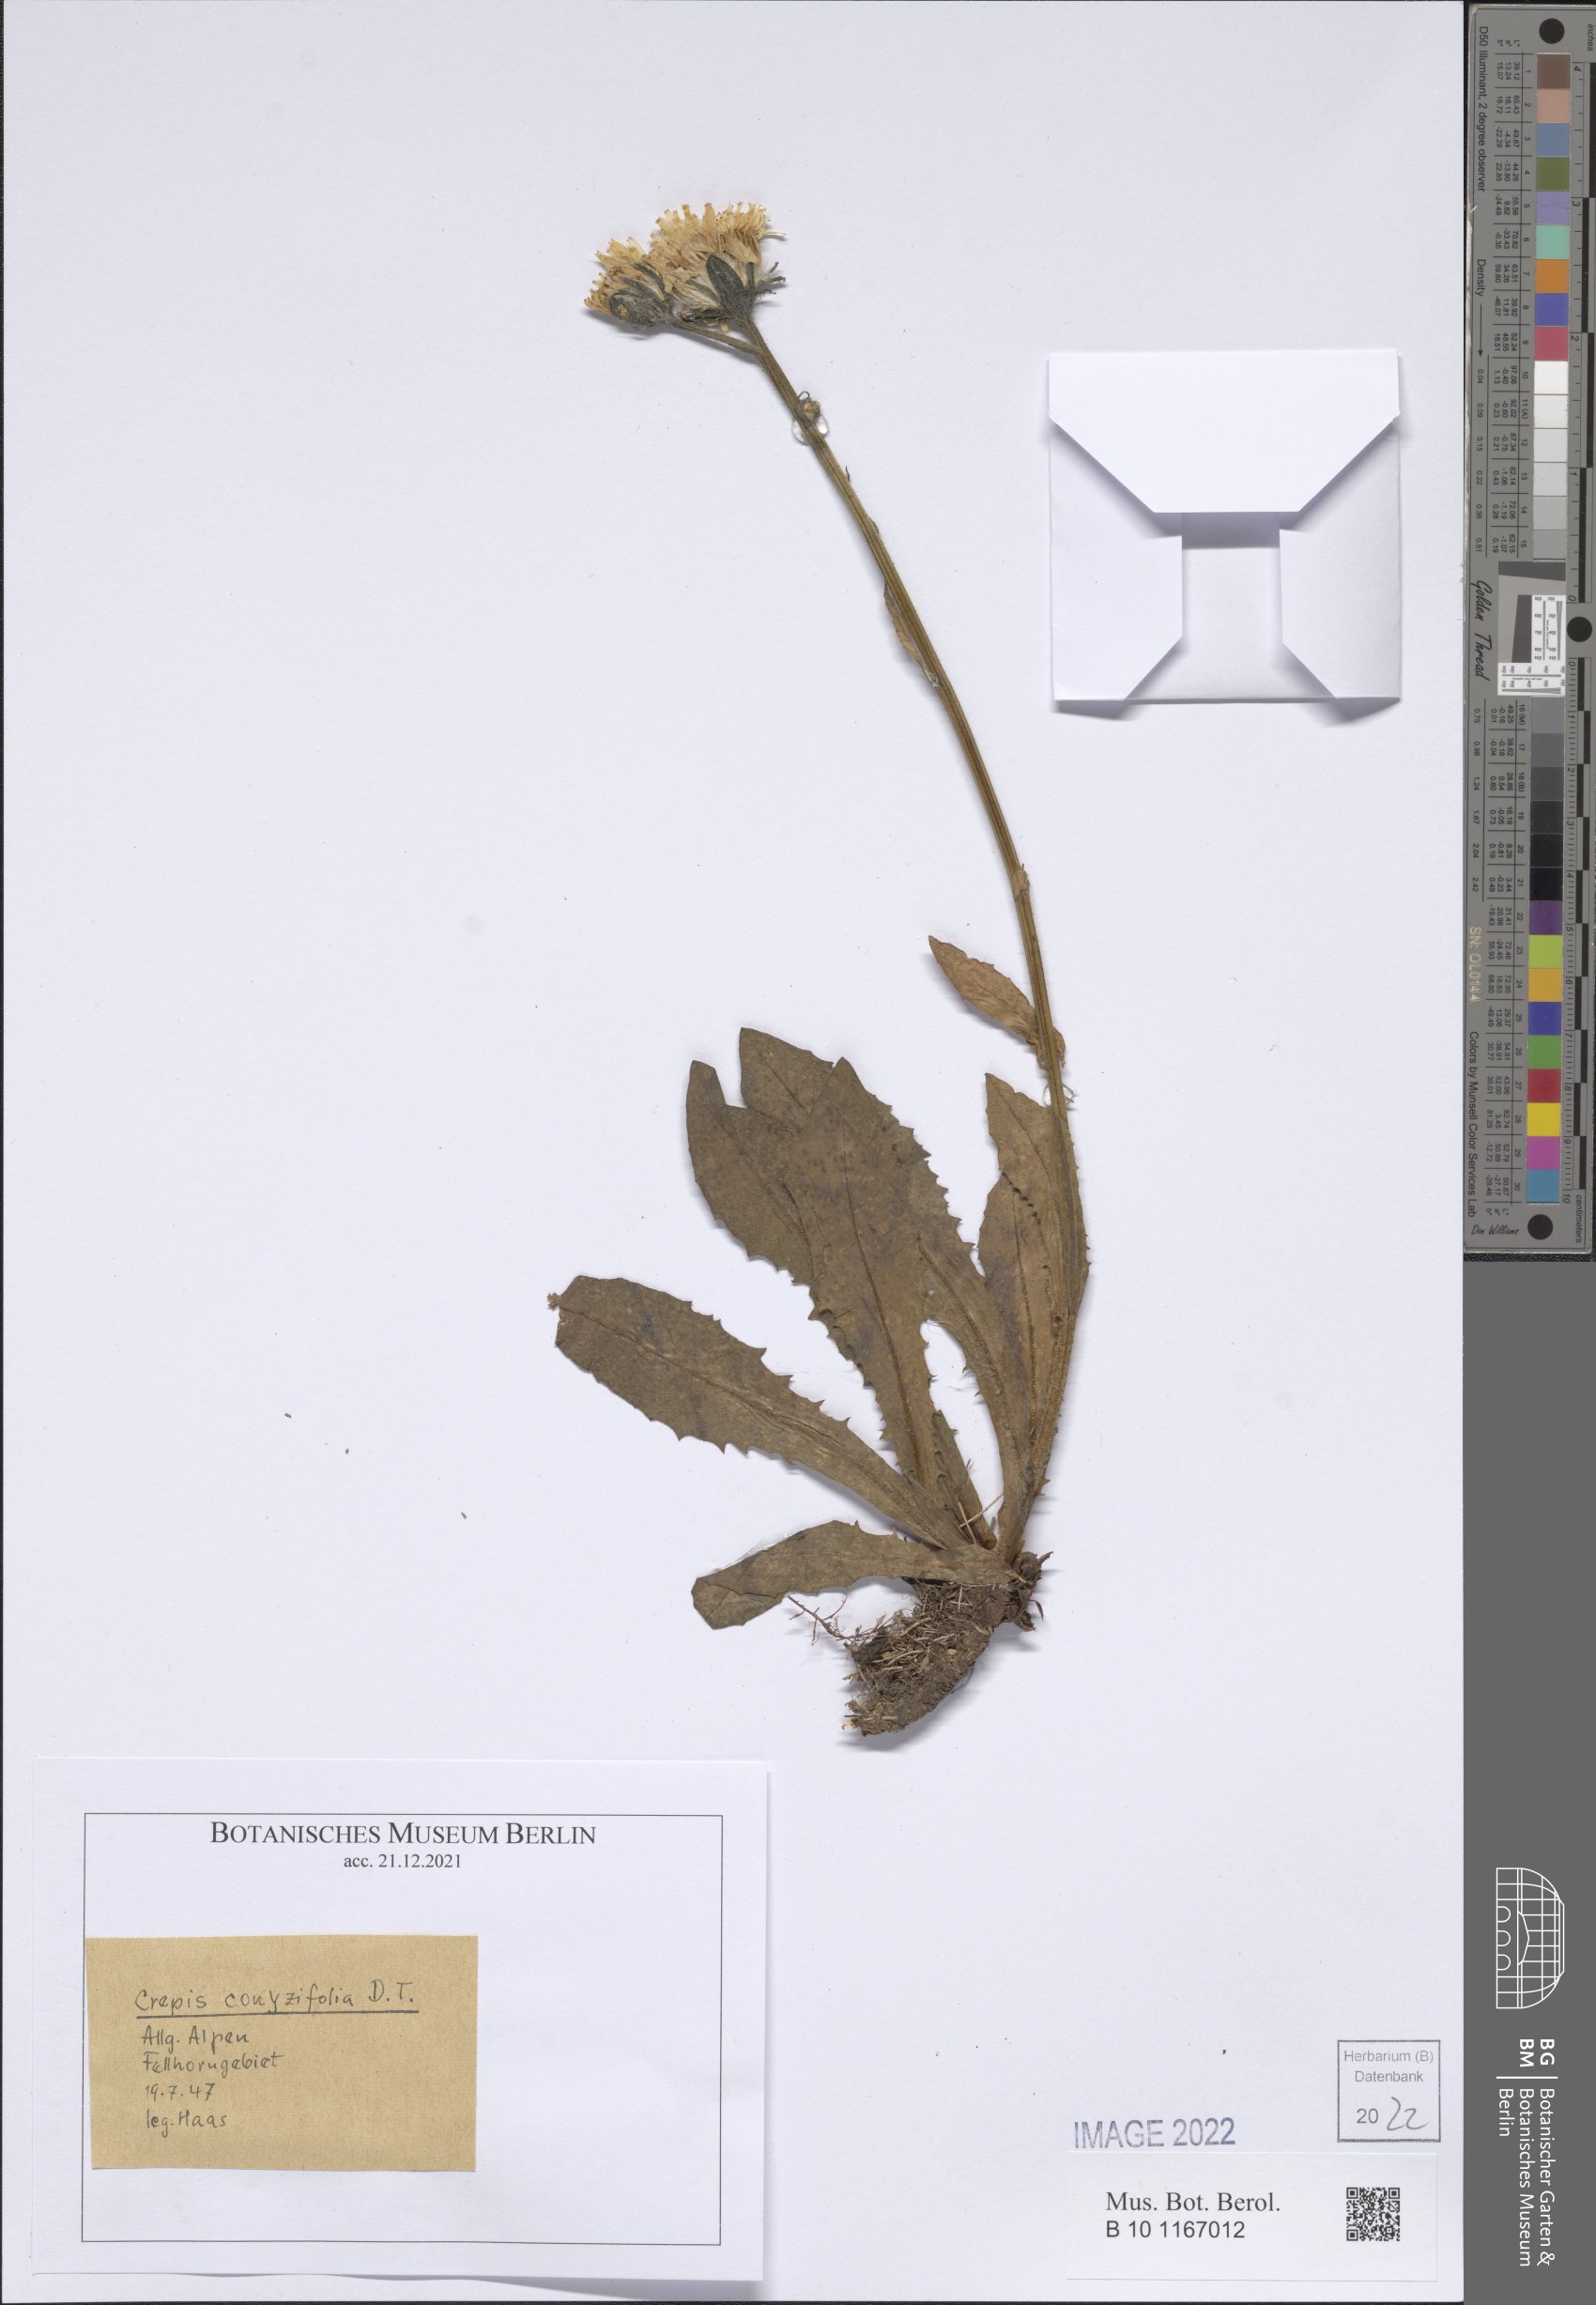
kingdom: Plantae
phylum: Tracheophyta
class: Magnoliopsida
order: Asterales
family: Asteraceae
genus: Crepis
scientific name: Crepis blattarioides
